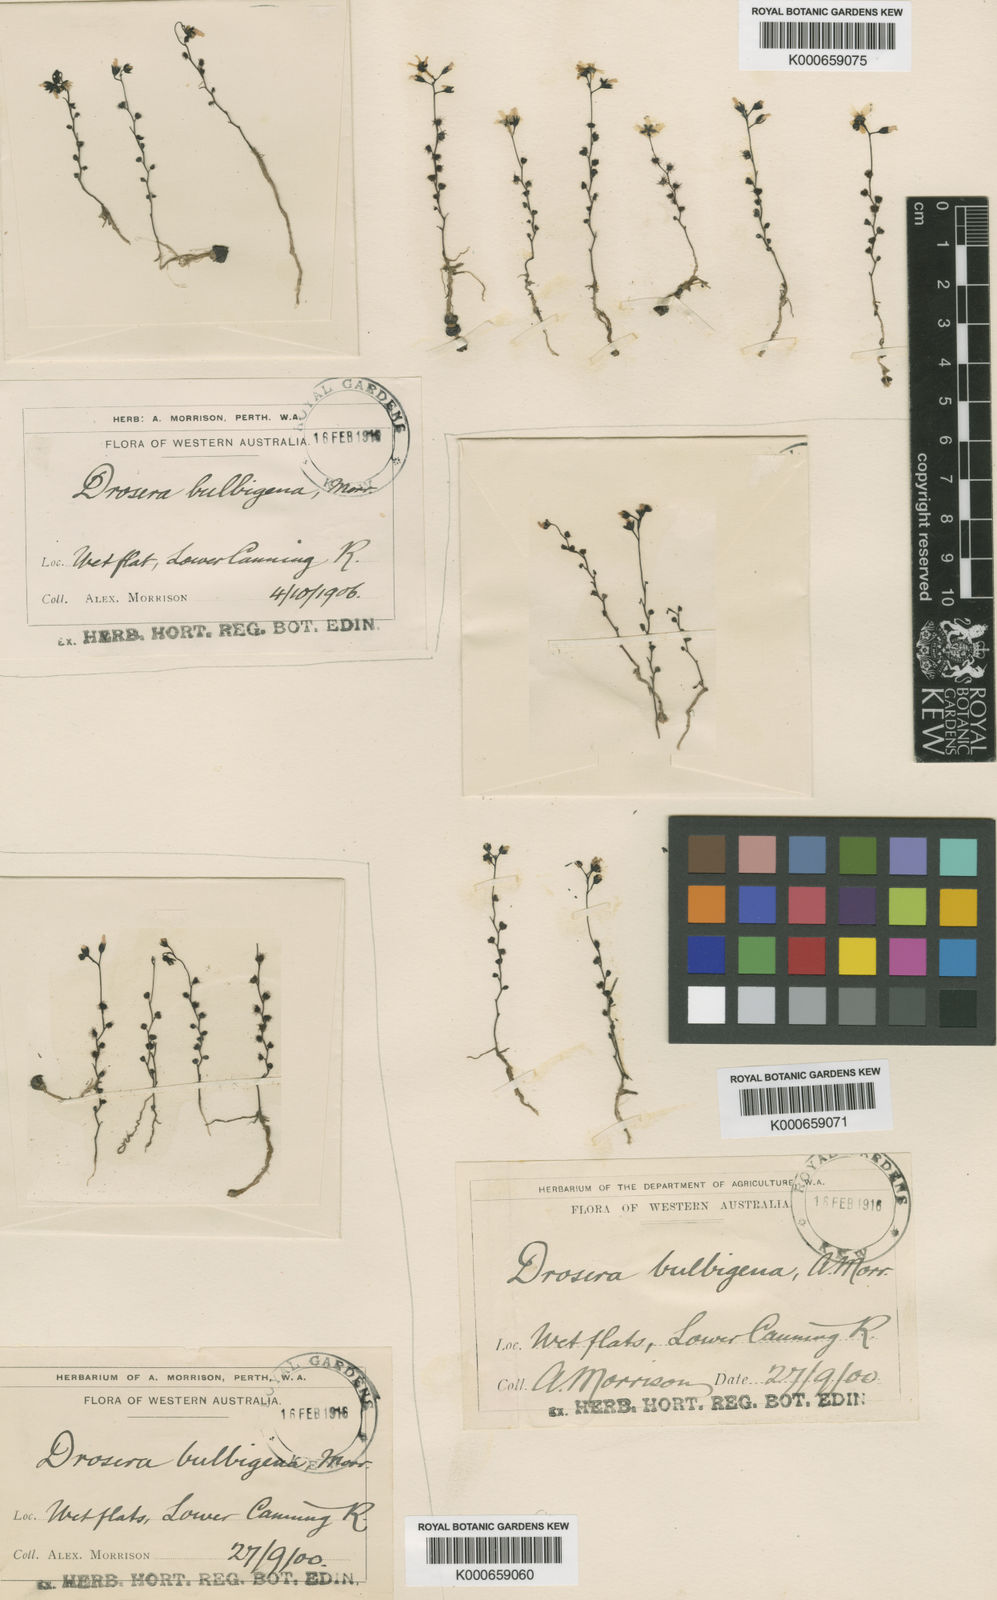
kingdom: Plantae
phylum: Tracheophyta
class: Magnoliopsida
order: Caryophyllales
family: Droseraceae
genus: Drosera
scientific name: Drosera bulbigena
